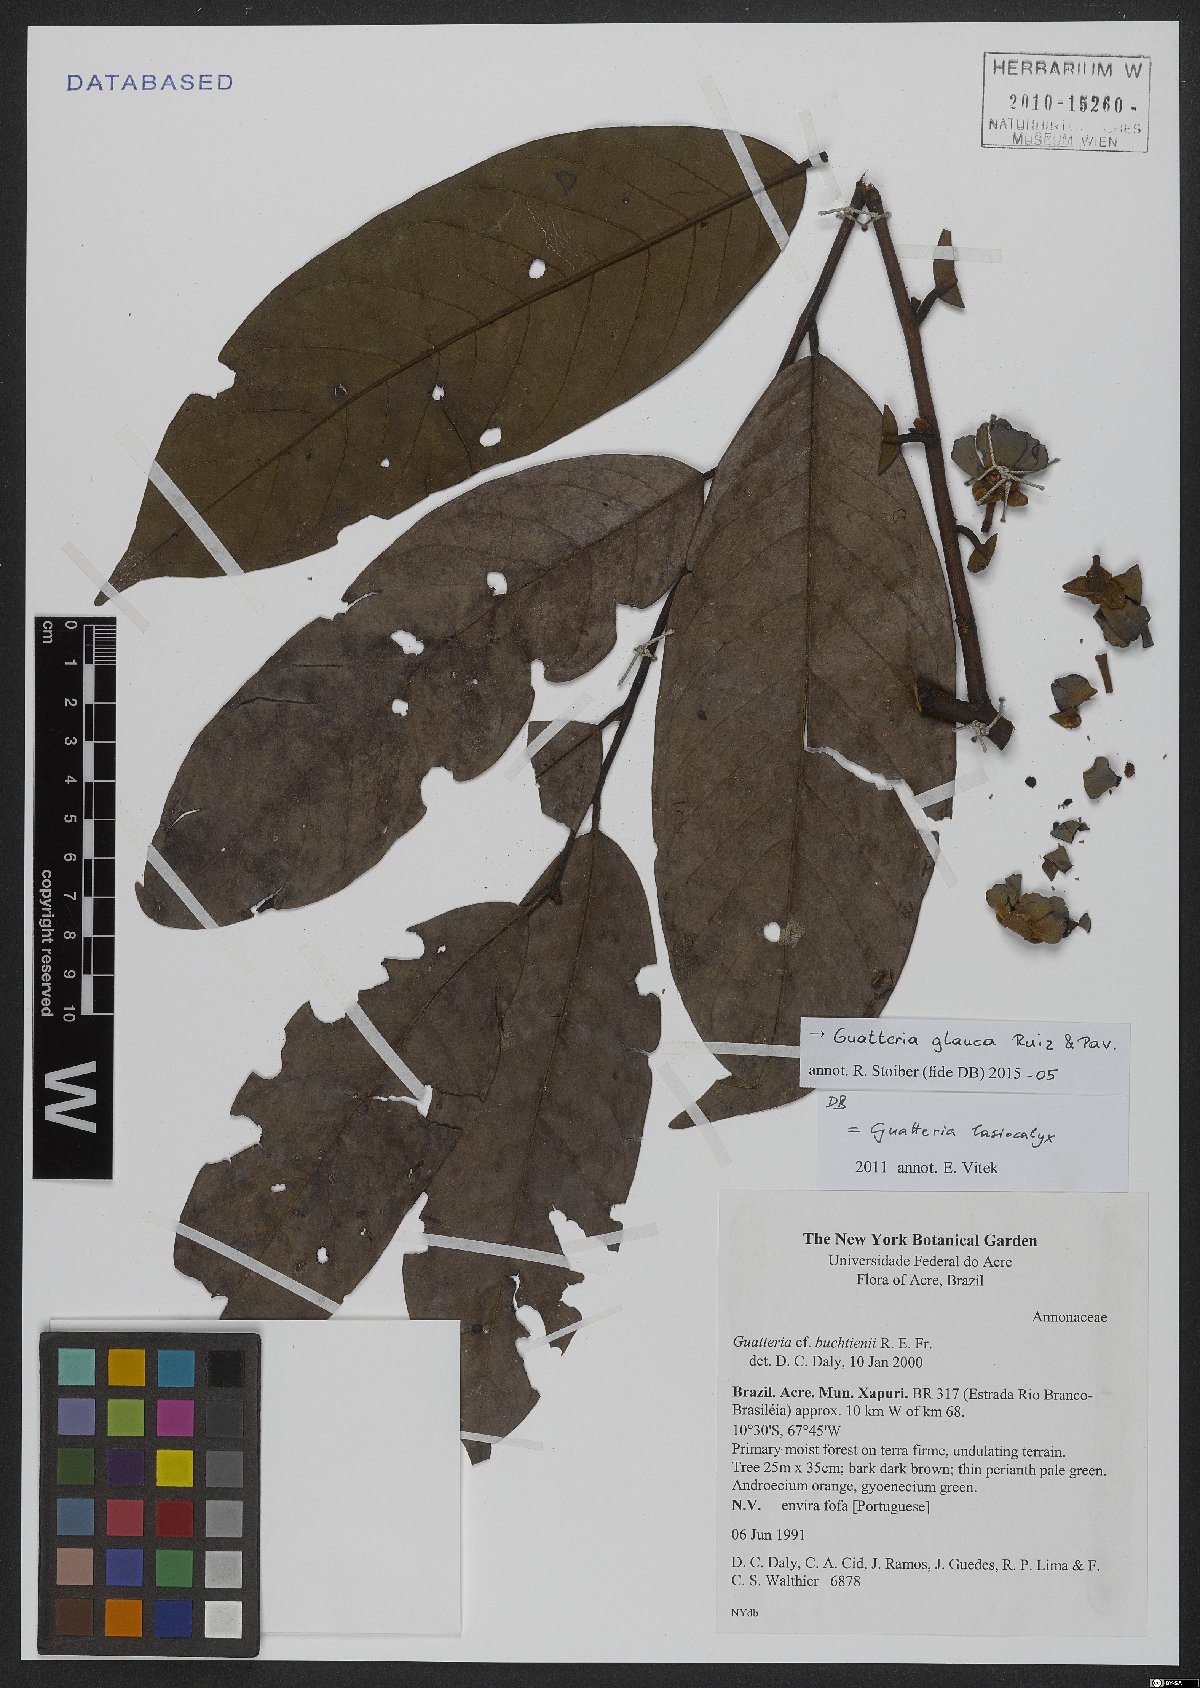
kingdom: Plantae
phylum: Tracheophyta
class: Magnoliopsida
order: Magnoliales
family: Annonaceae
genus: Guatteria
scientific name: Guatteria glauca
